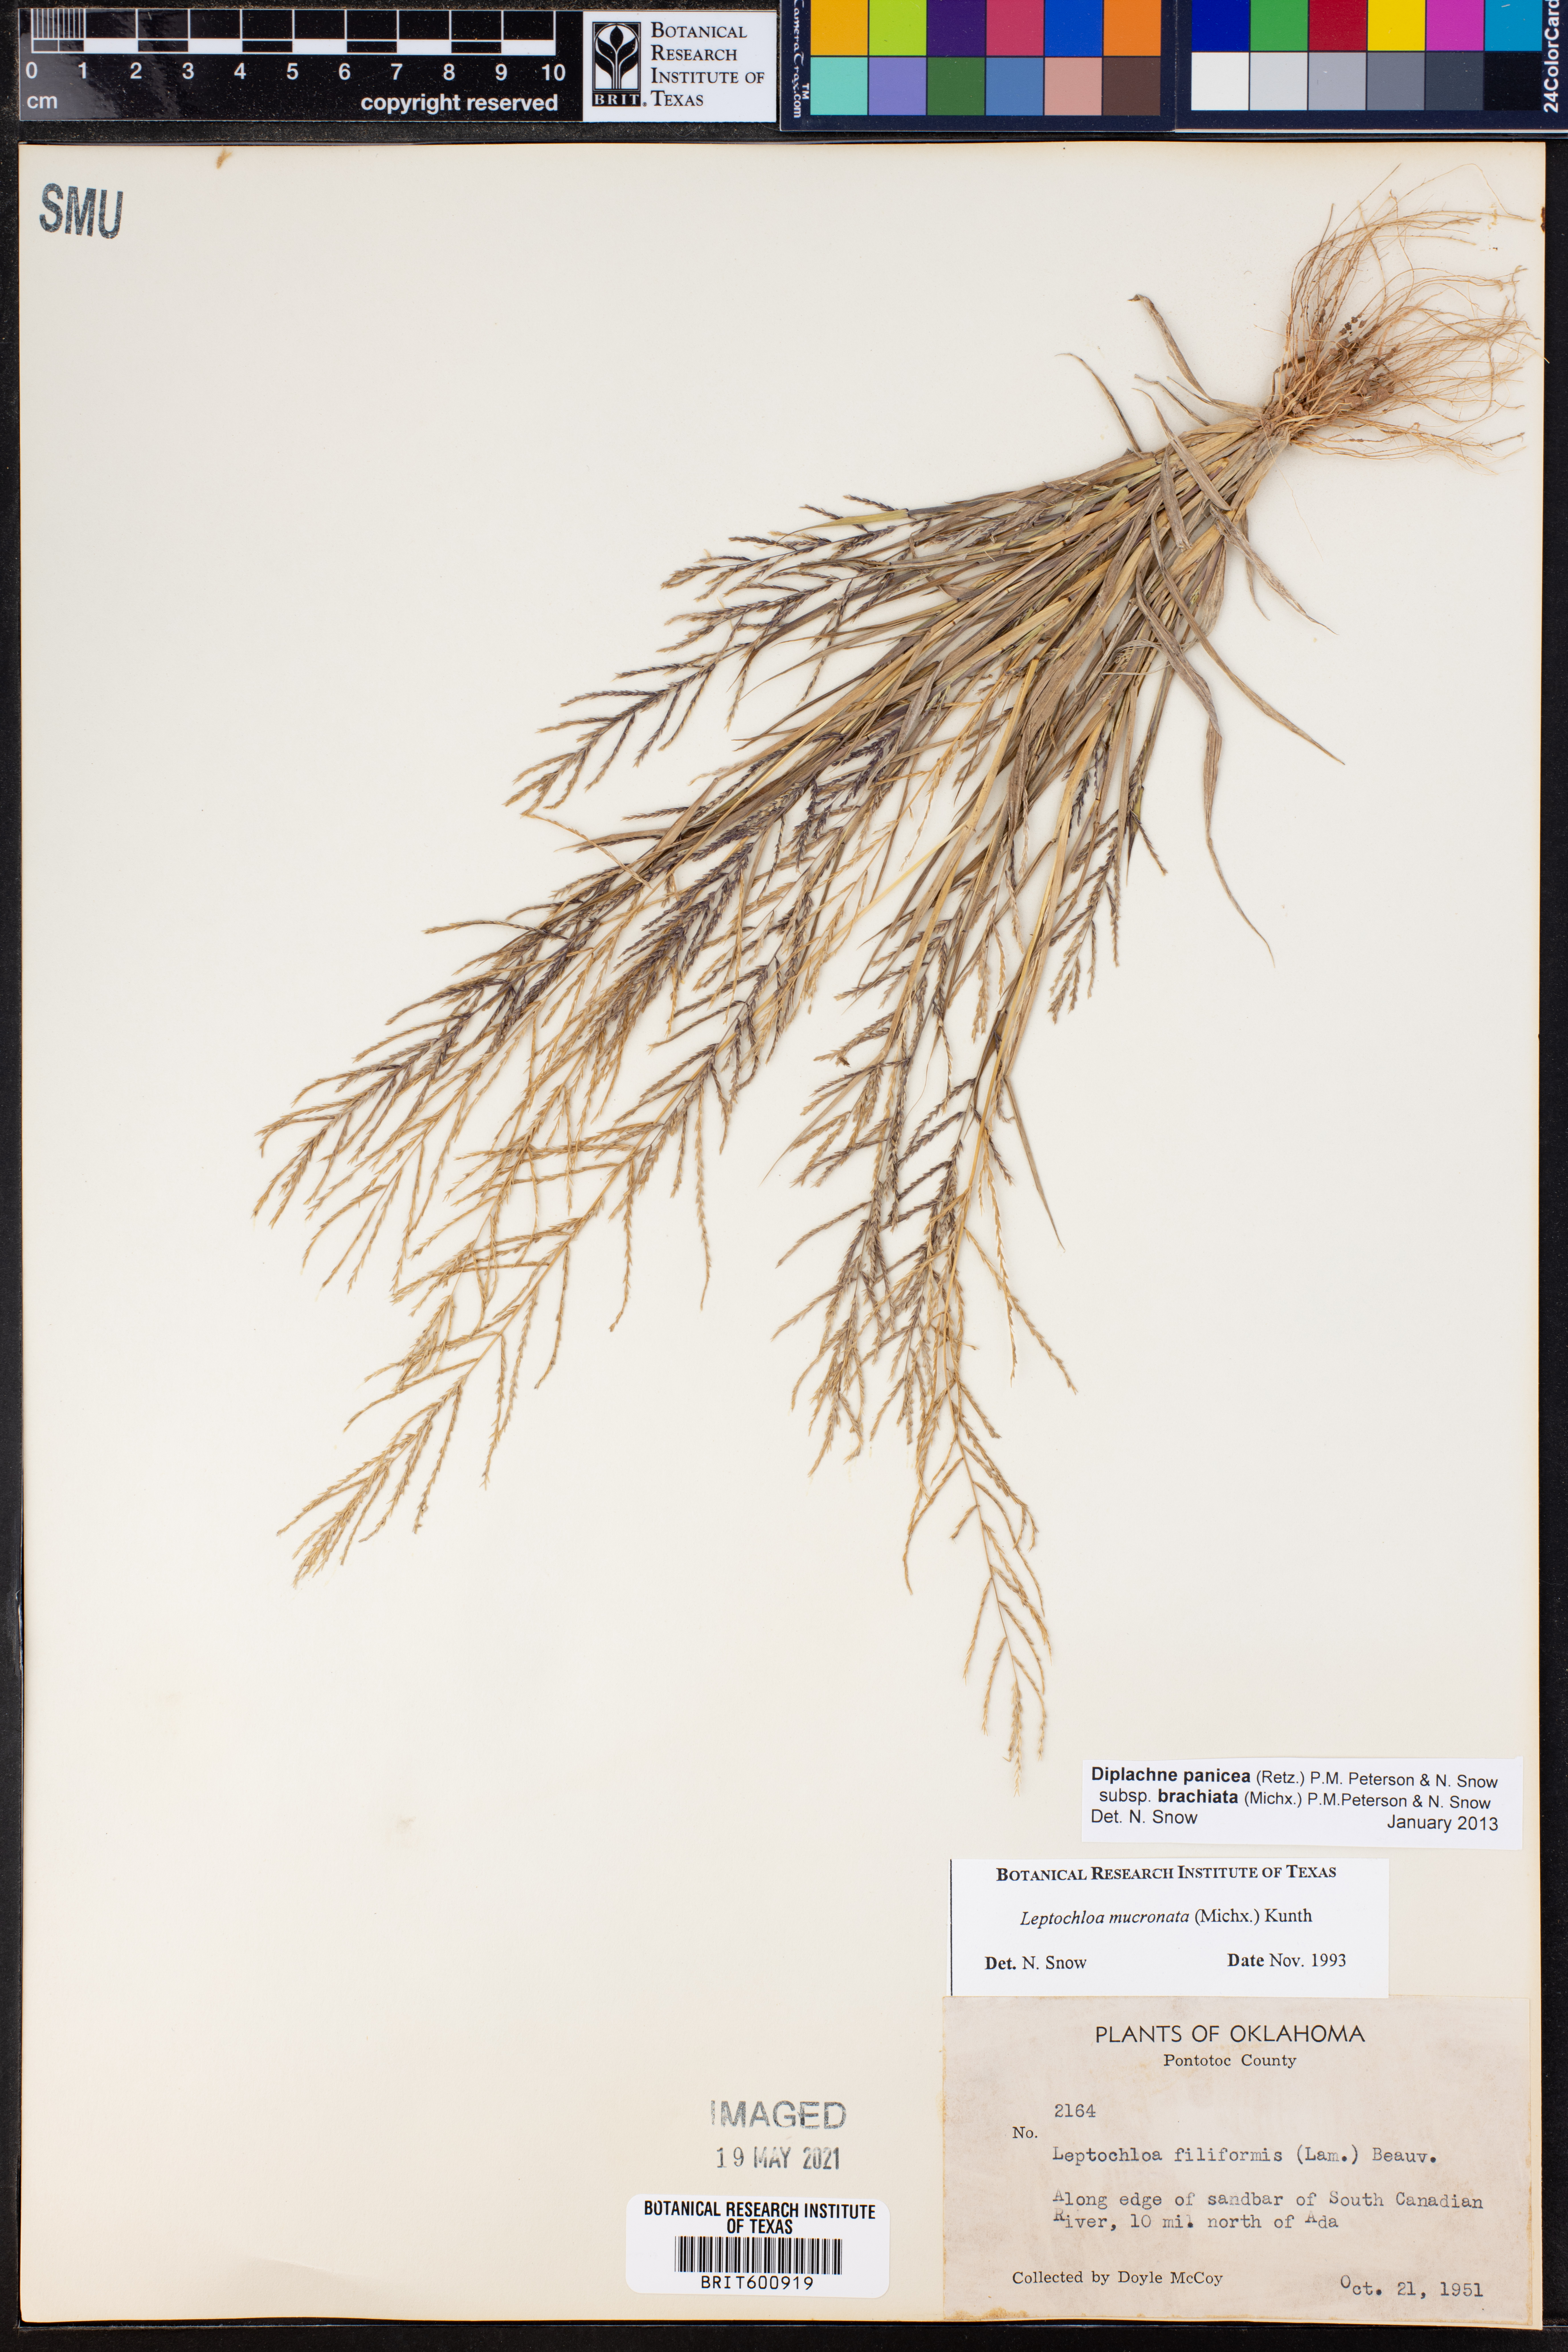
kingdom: Plantae
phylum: Tracheophyta
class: Liliopsida
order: Poales
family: Poaceae
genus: Diplachne
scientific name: Diplachne
